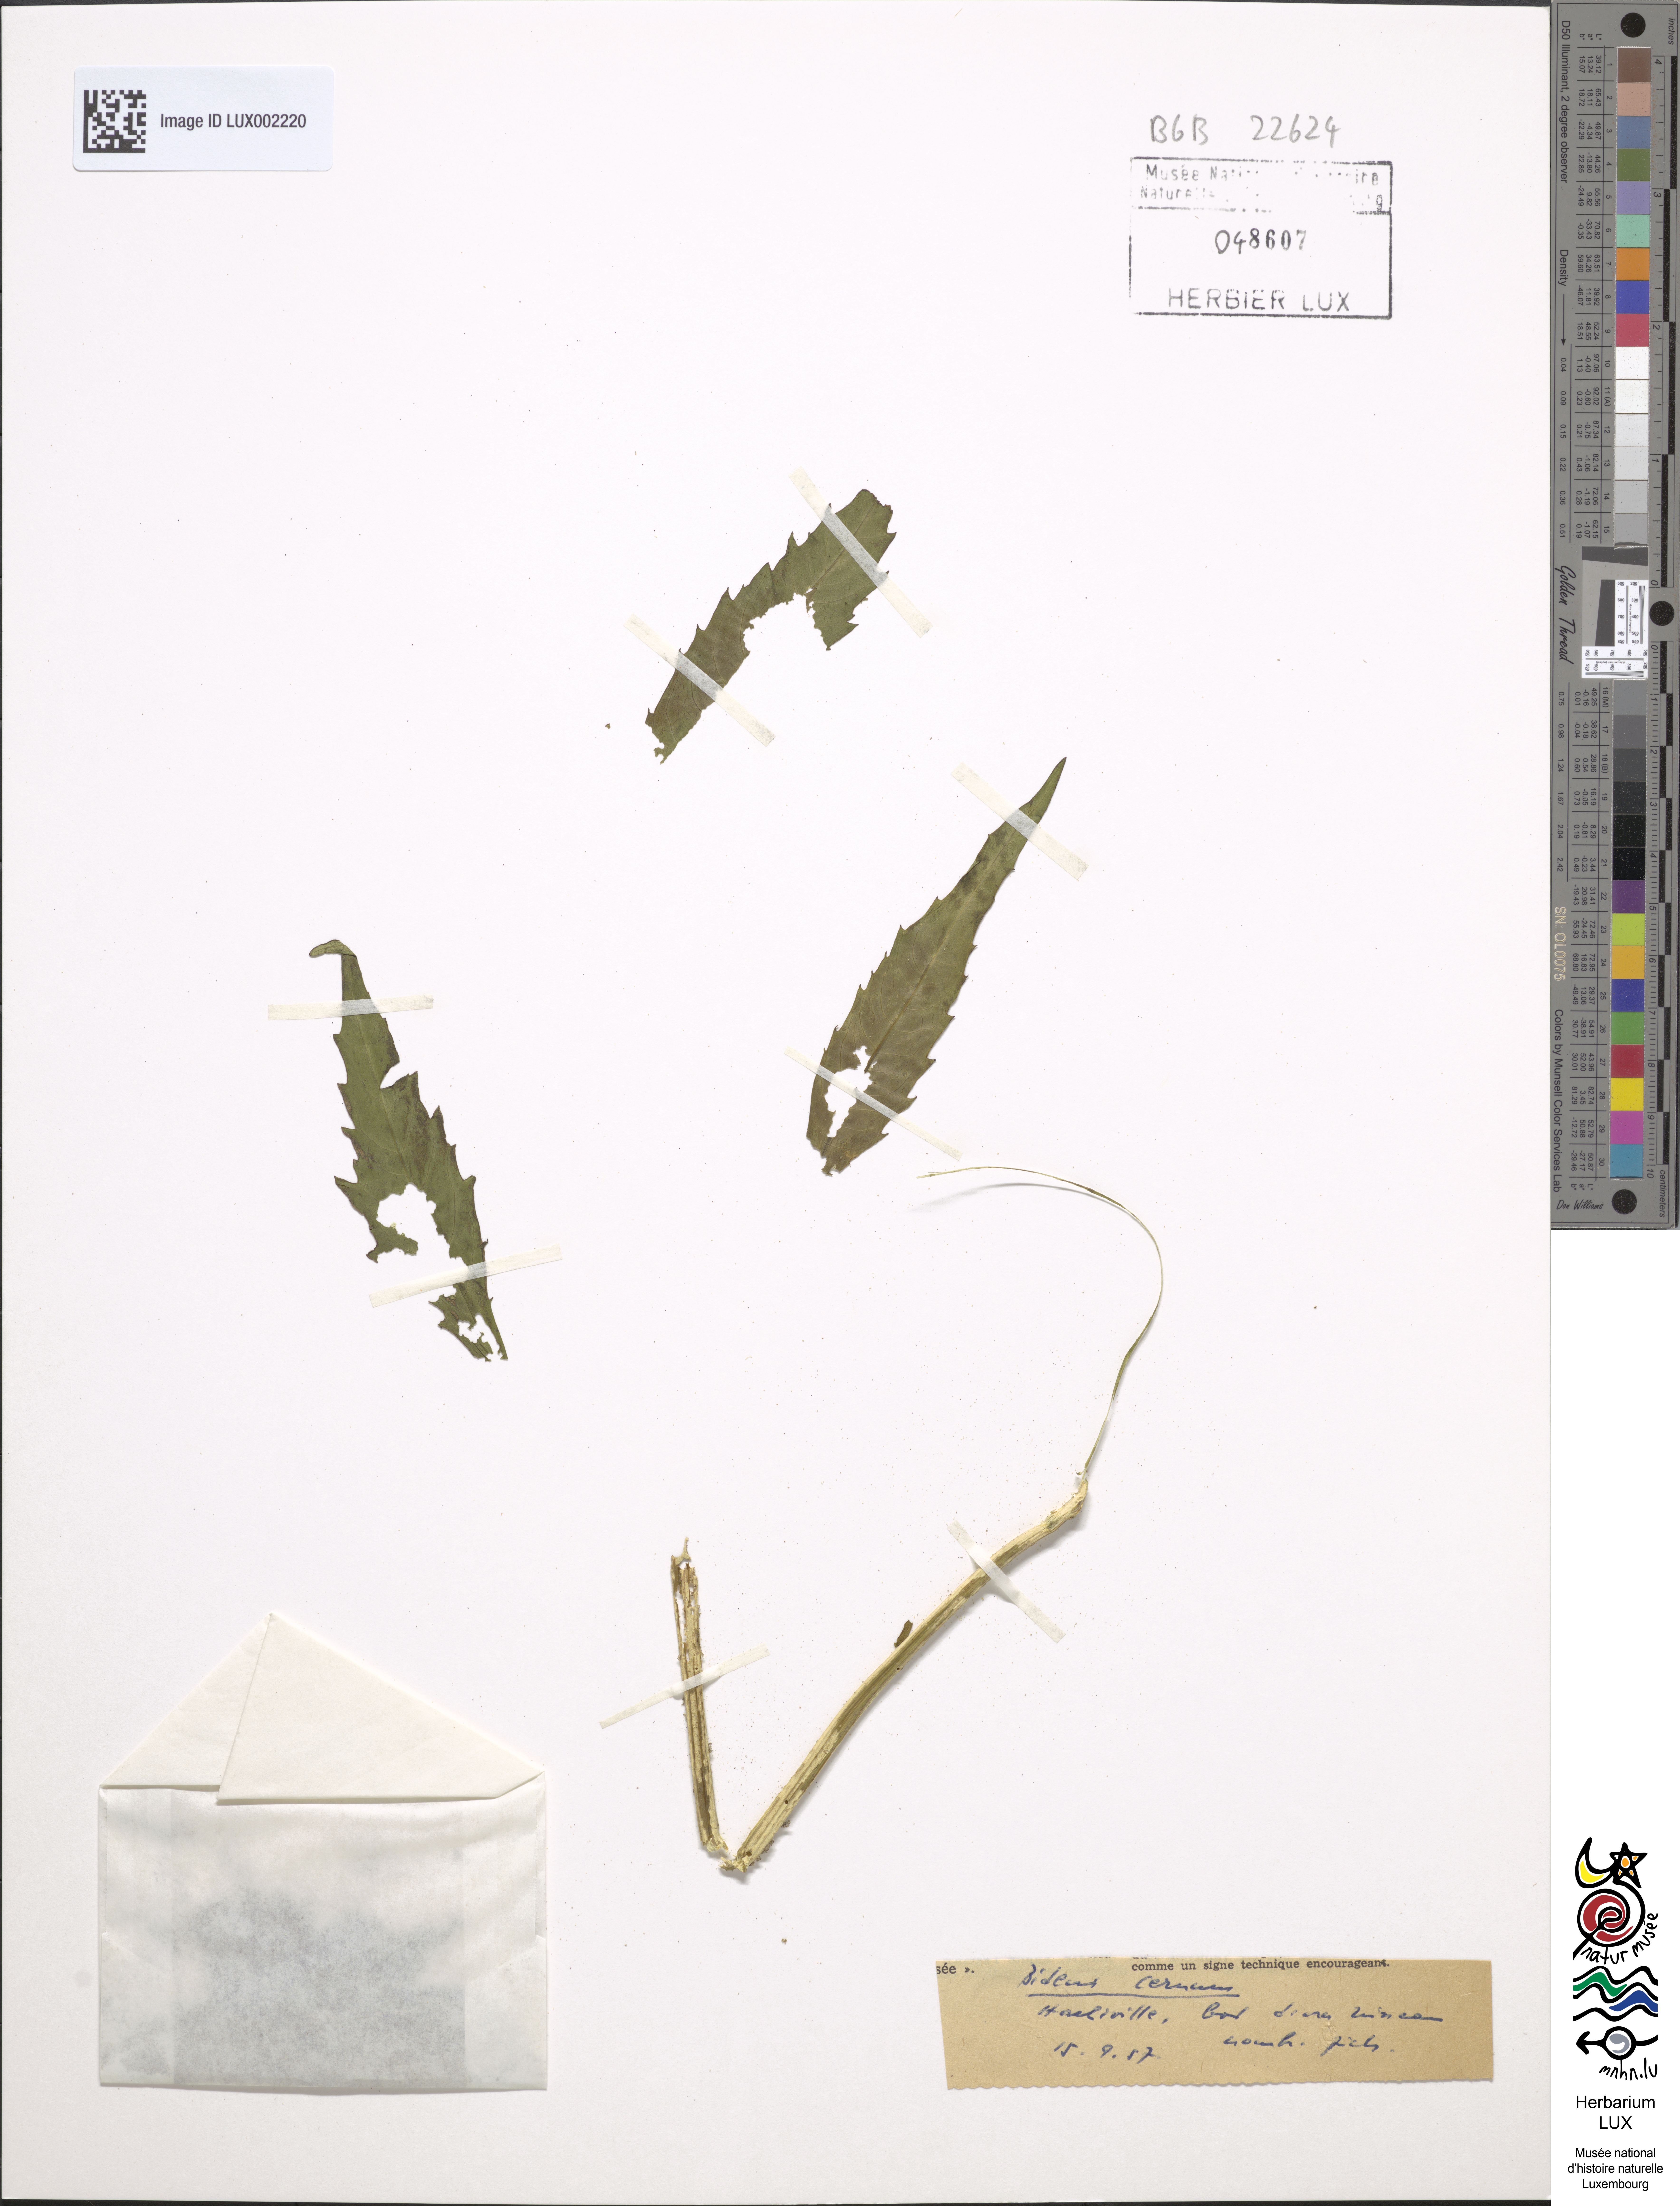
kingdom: Plantae
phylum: Tracheophyta
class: Magnoliopsida
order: Asterales
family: Asteraceae
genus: Bidens
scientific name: Bidens cernua
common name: Nodding bur-marigold
